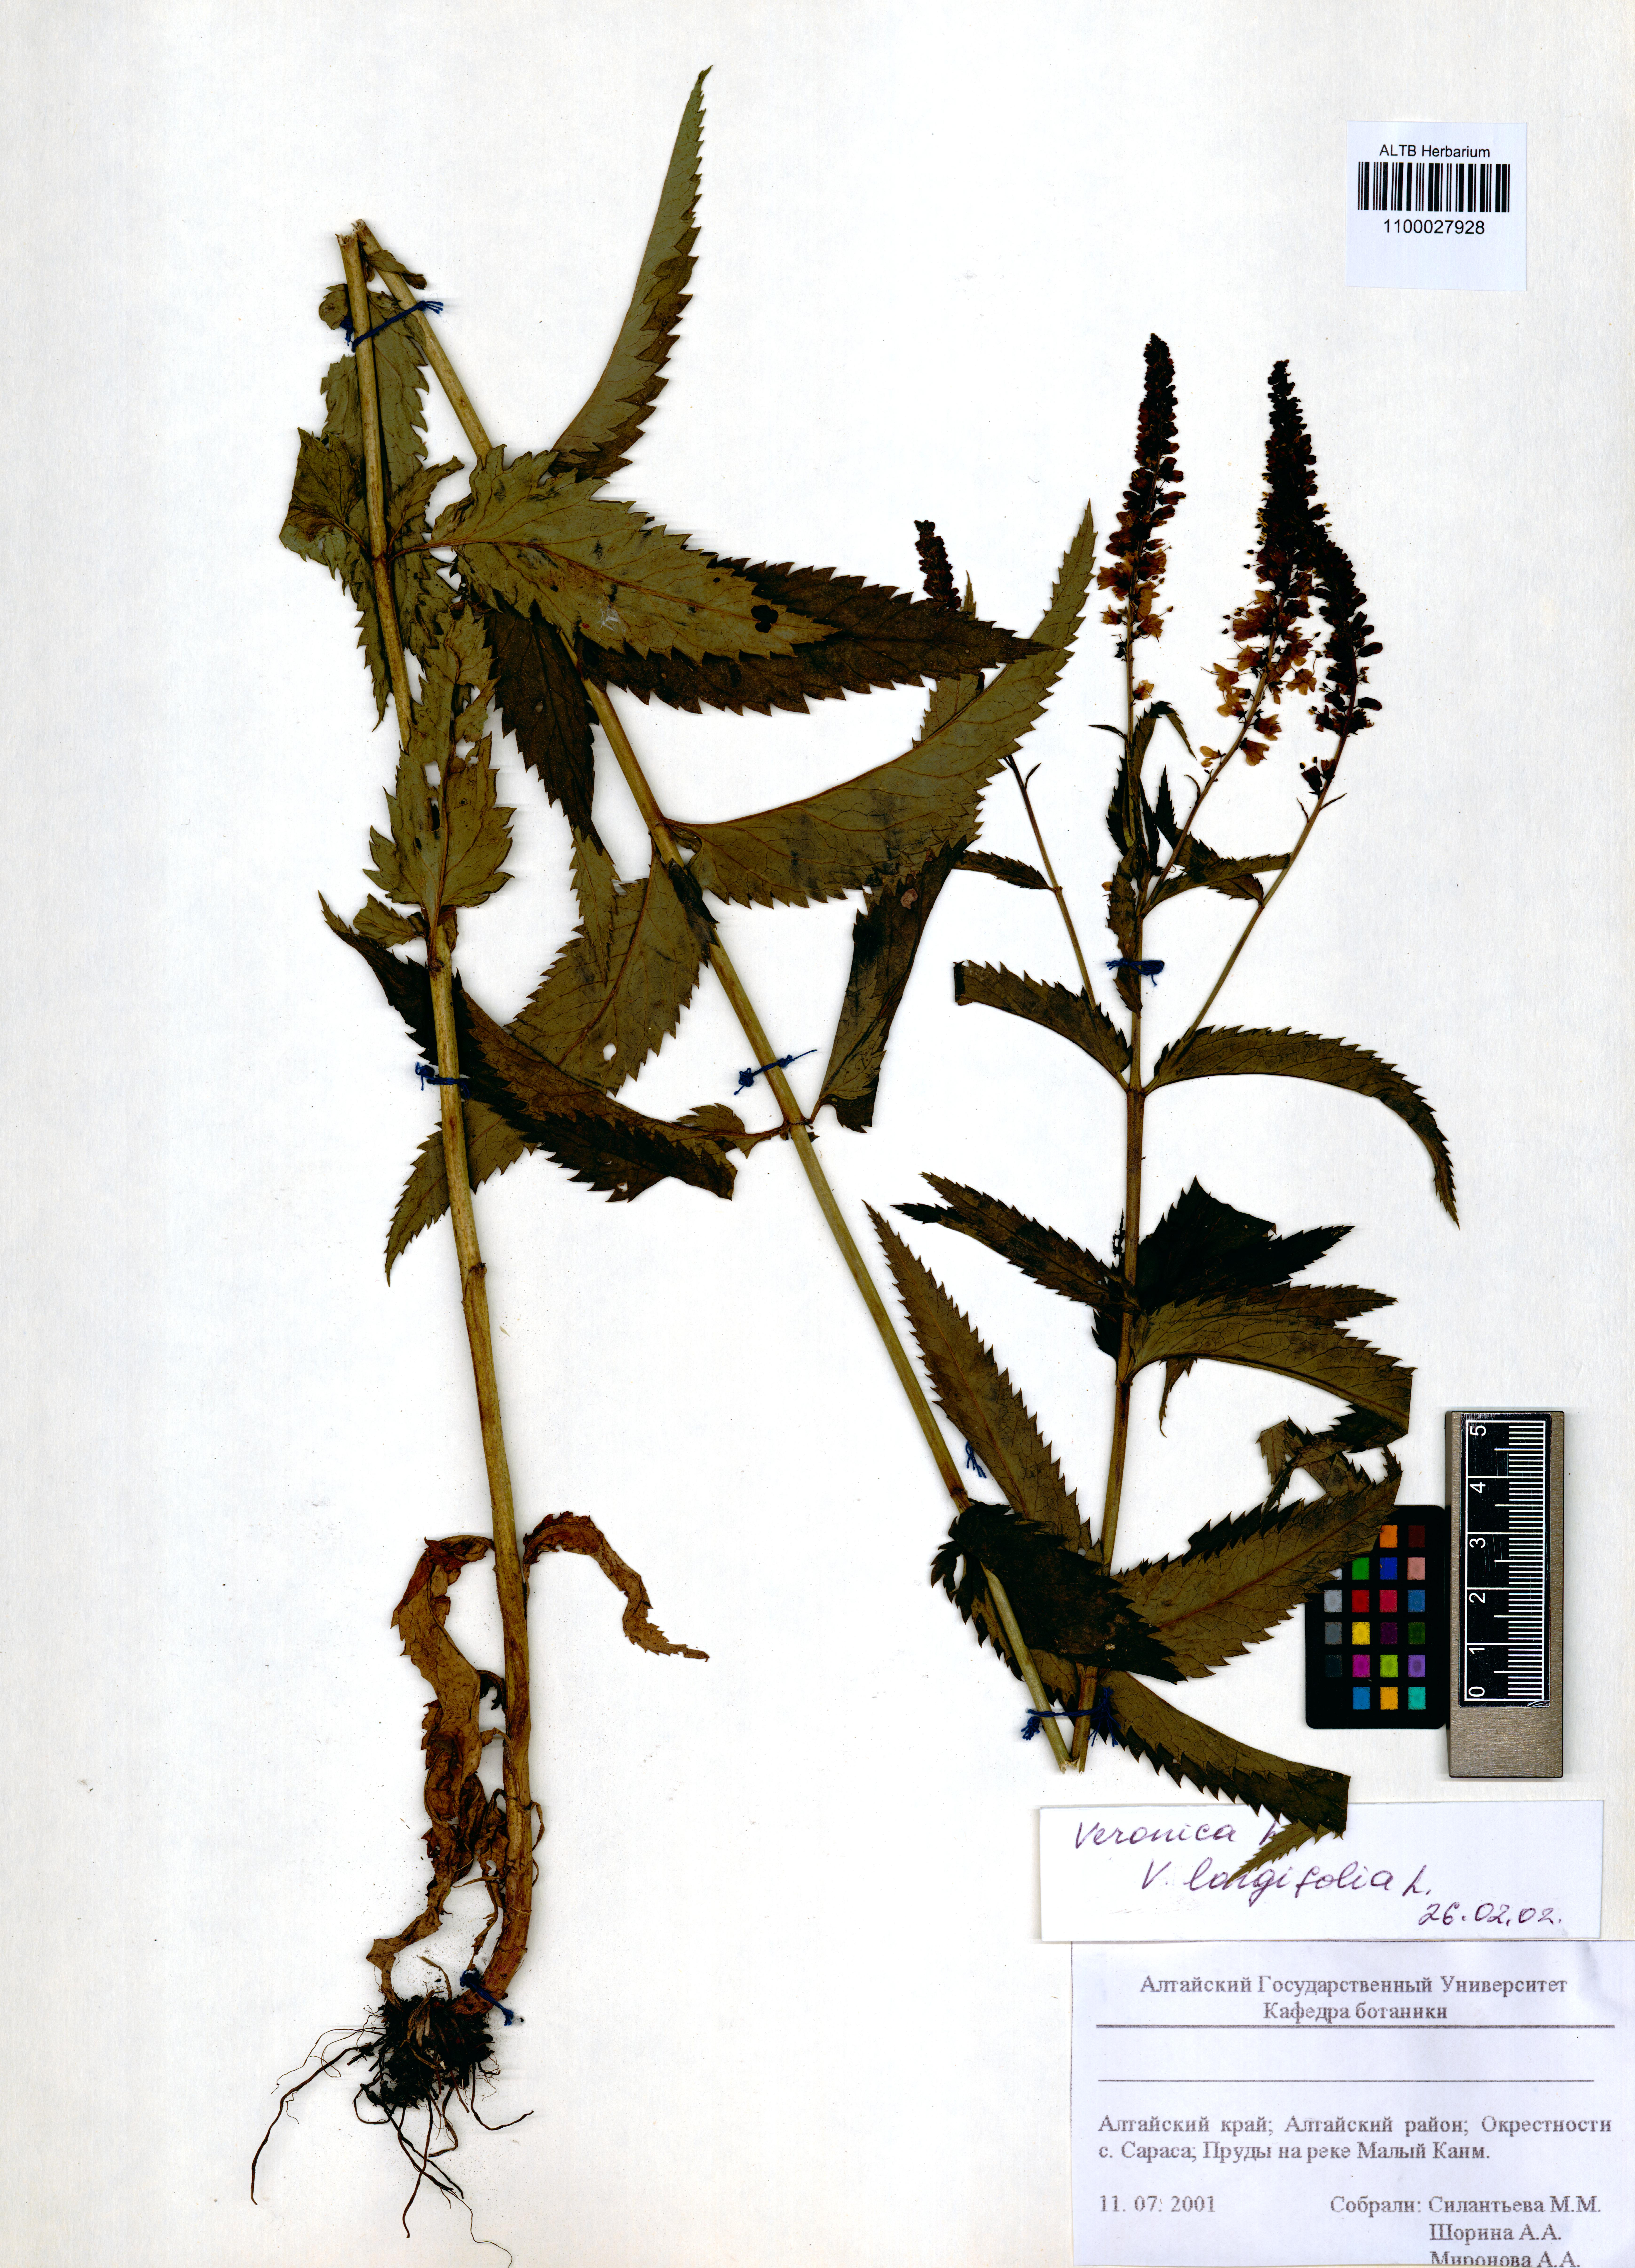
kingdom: Plantae
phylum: Tracheophyta
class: Magnoliopsida
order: Lamiales
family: Plantaginaceae
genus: Veronica
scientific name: Veronica longifolia
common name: Garden speedwell
